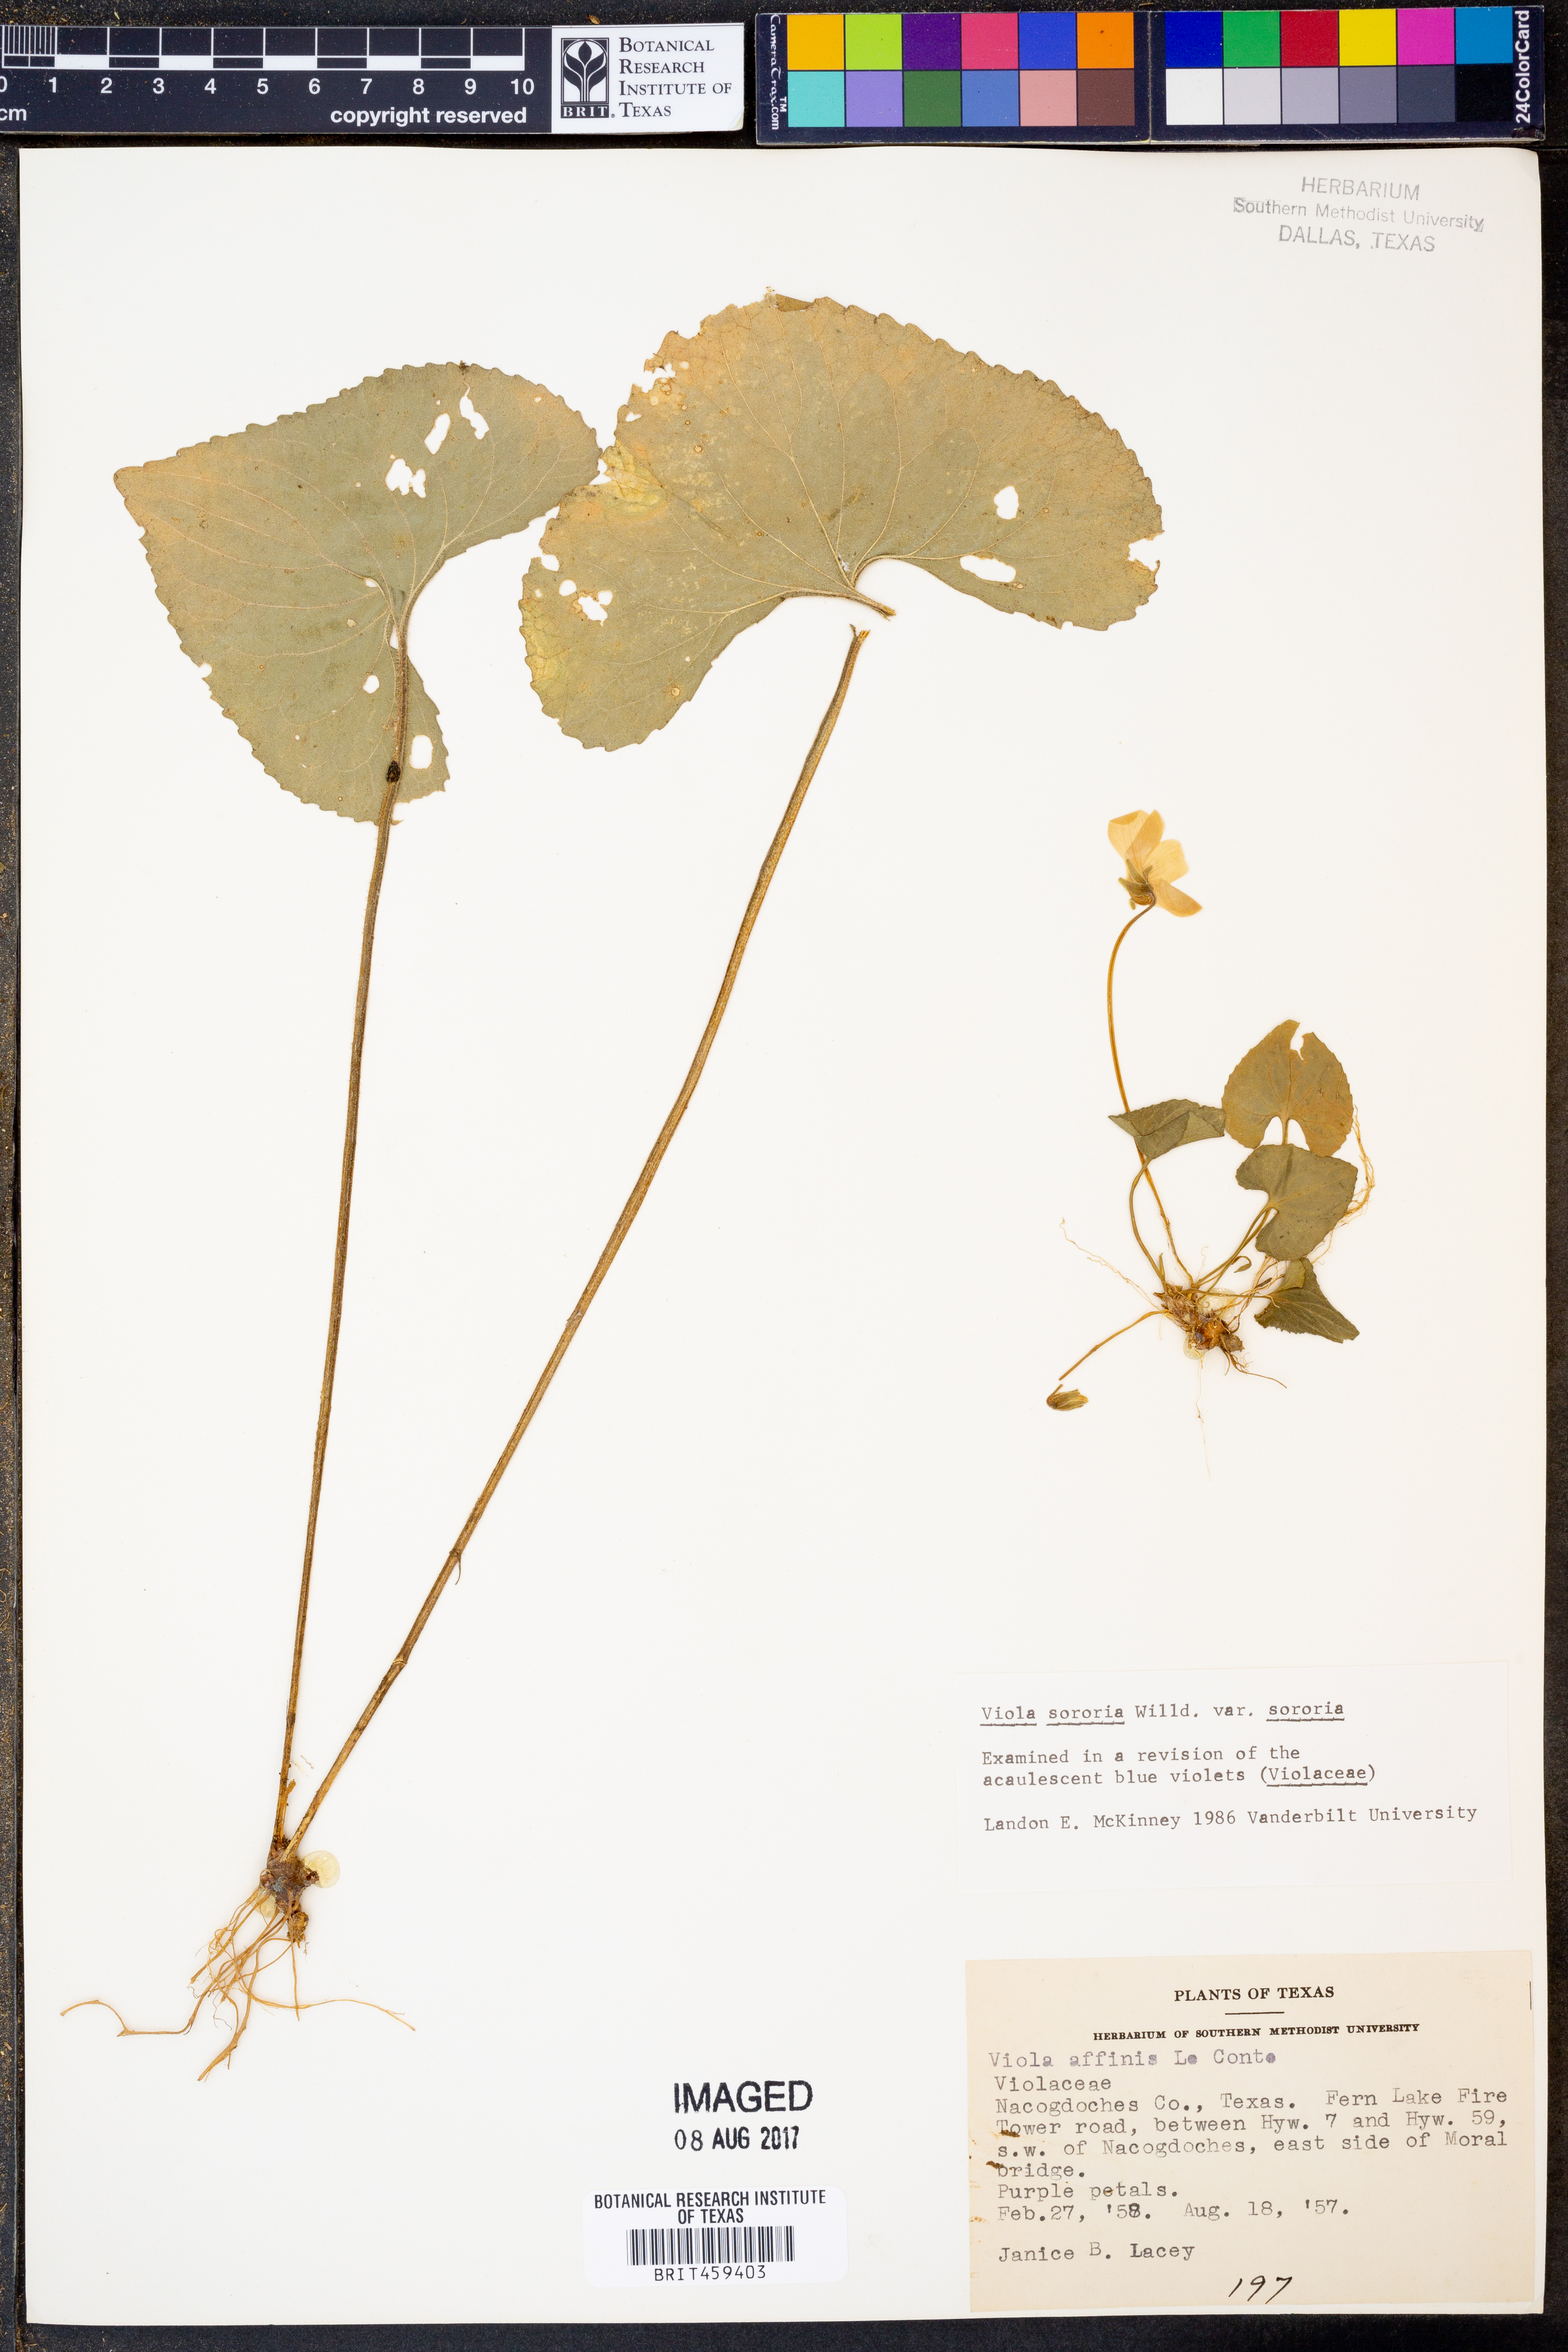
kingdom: Plantae
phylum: Tracheophyta
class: Magnoliopsida
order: Malpighiales
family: Violaceae
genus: Viola
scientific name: Viola sororia
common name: Dooryard violet
